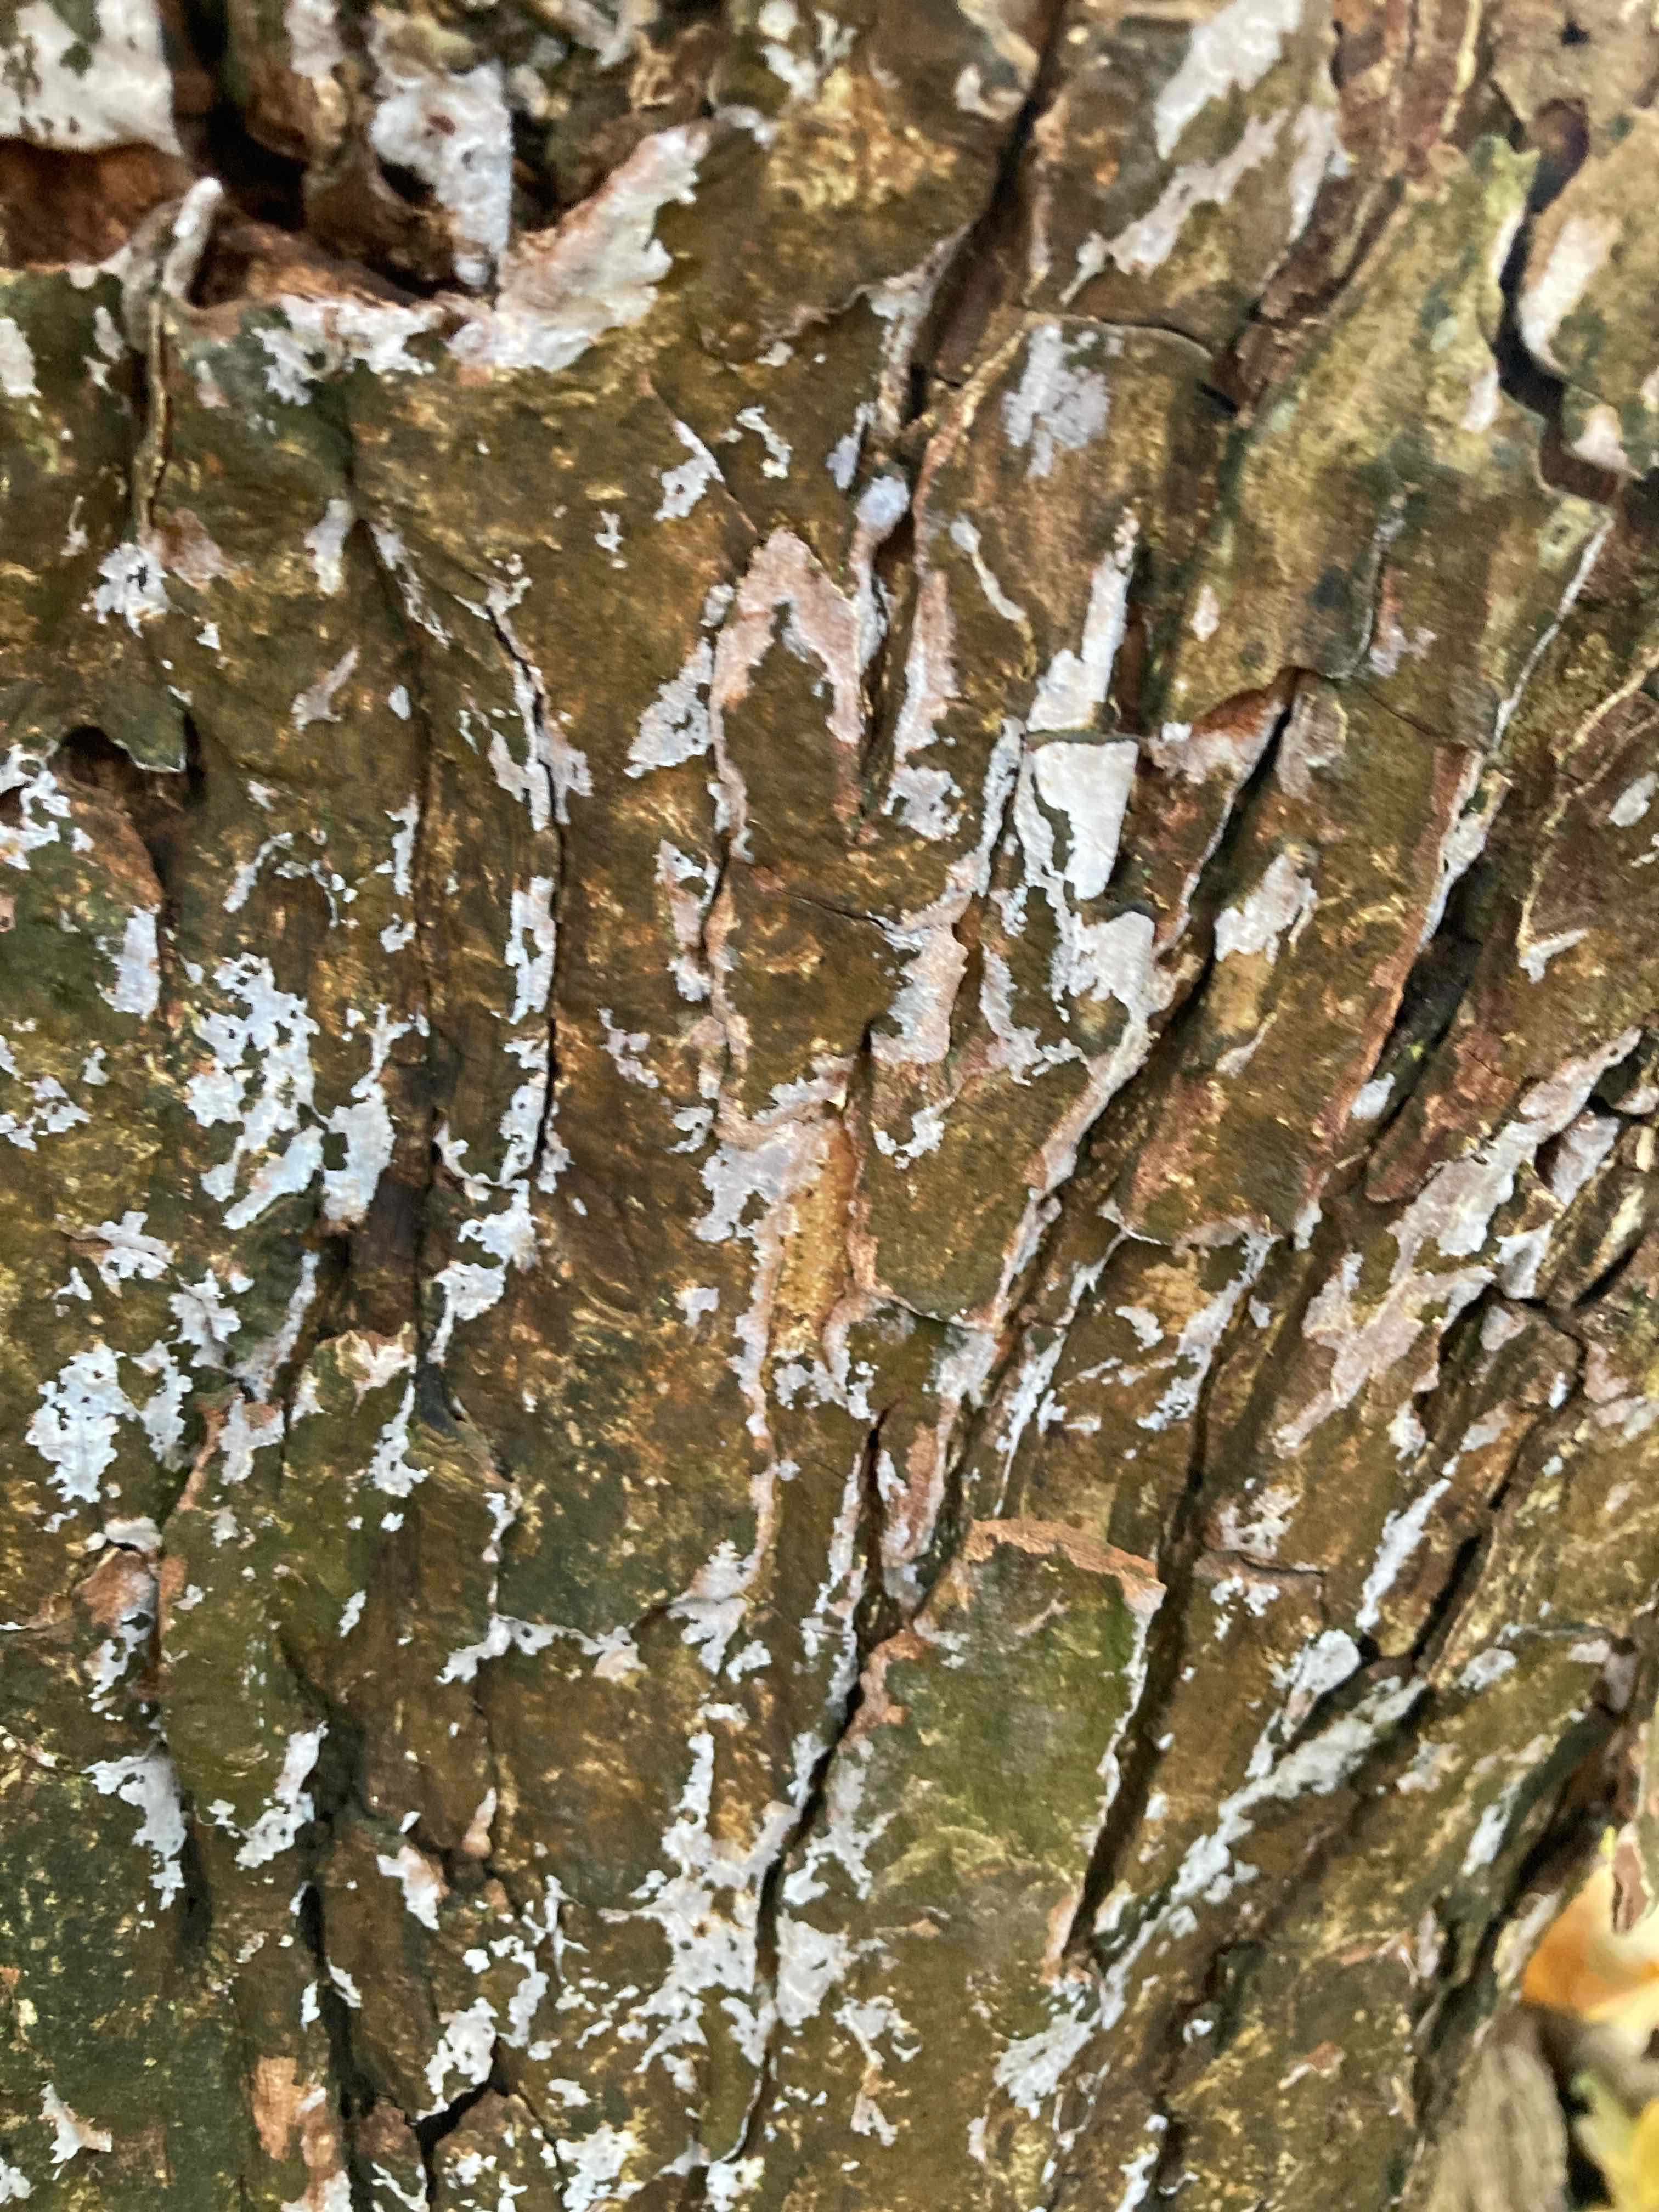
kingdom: Fungi
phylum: Basidiomycota
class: Agaricomycetes
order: Agaricales
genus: Dendrothele
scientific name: Dendrothele acerina
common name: navr-kalkplet
